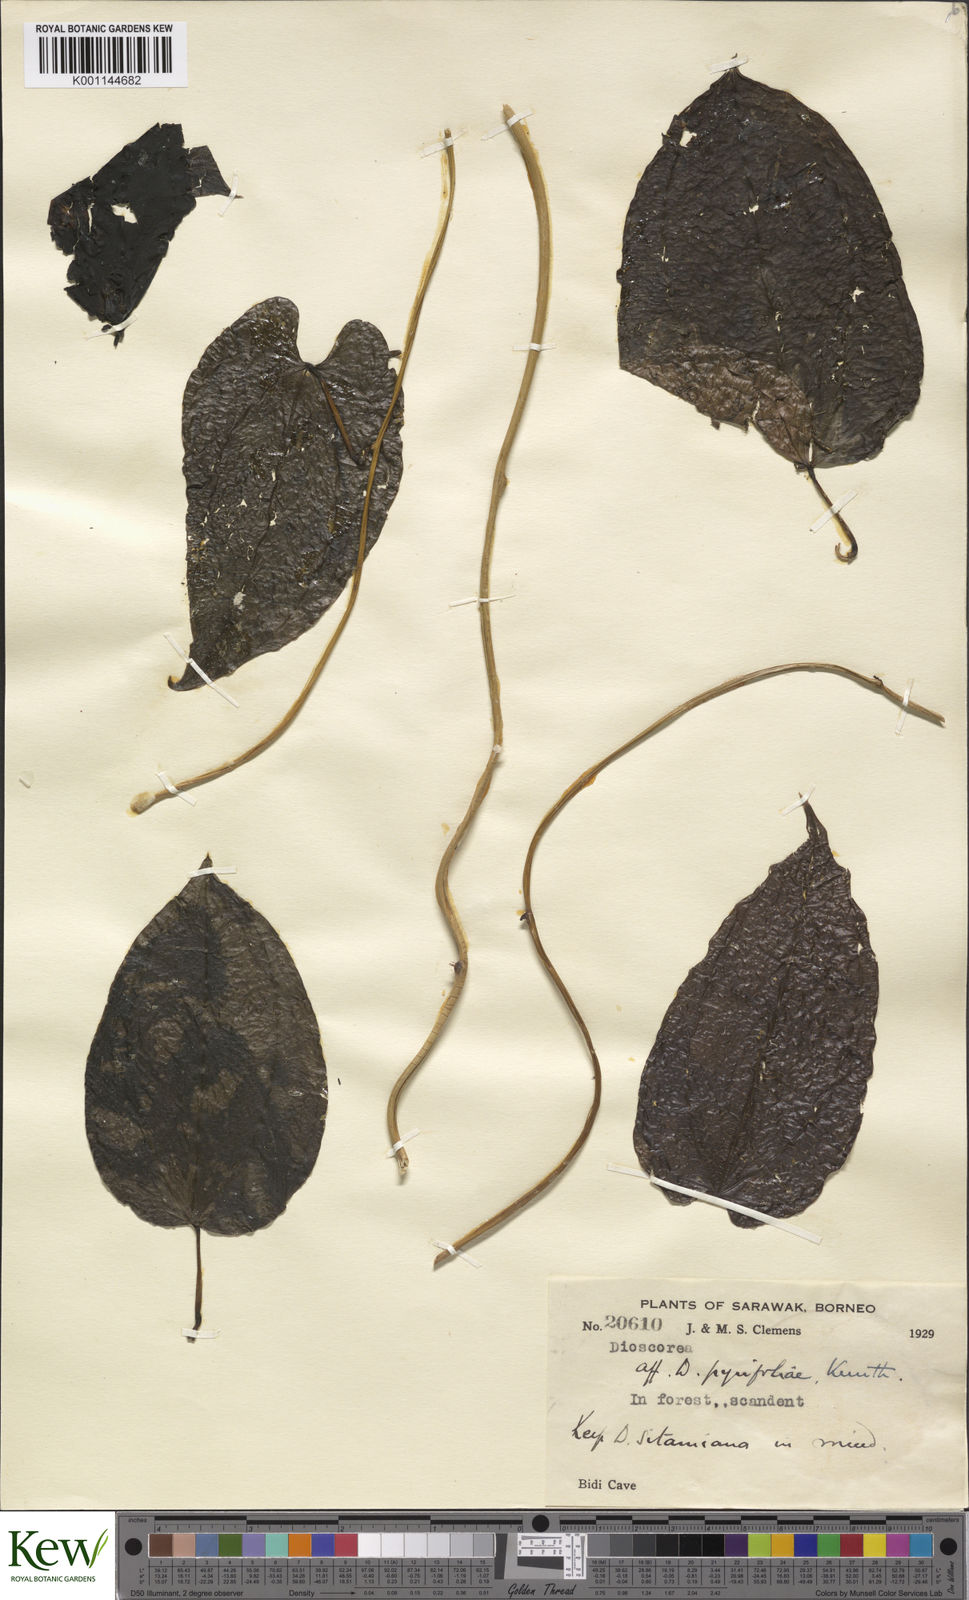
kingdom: Plantae
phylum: Tracheophyta
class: Liliopsida
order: Dioscoreales
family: Dioscoreaceae
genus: Dioscorea
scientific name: Dioscorea
